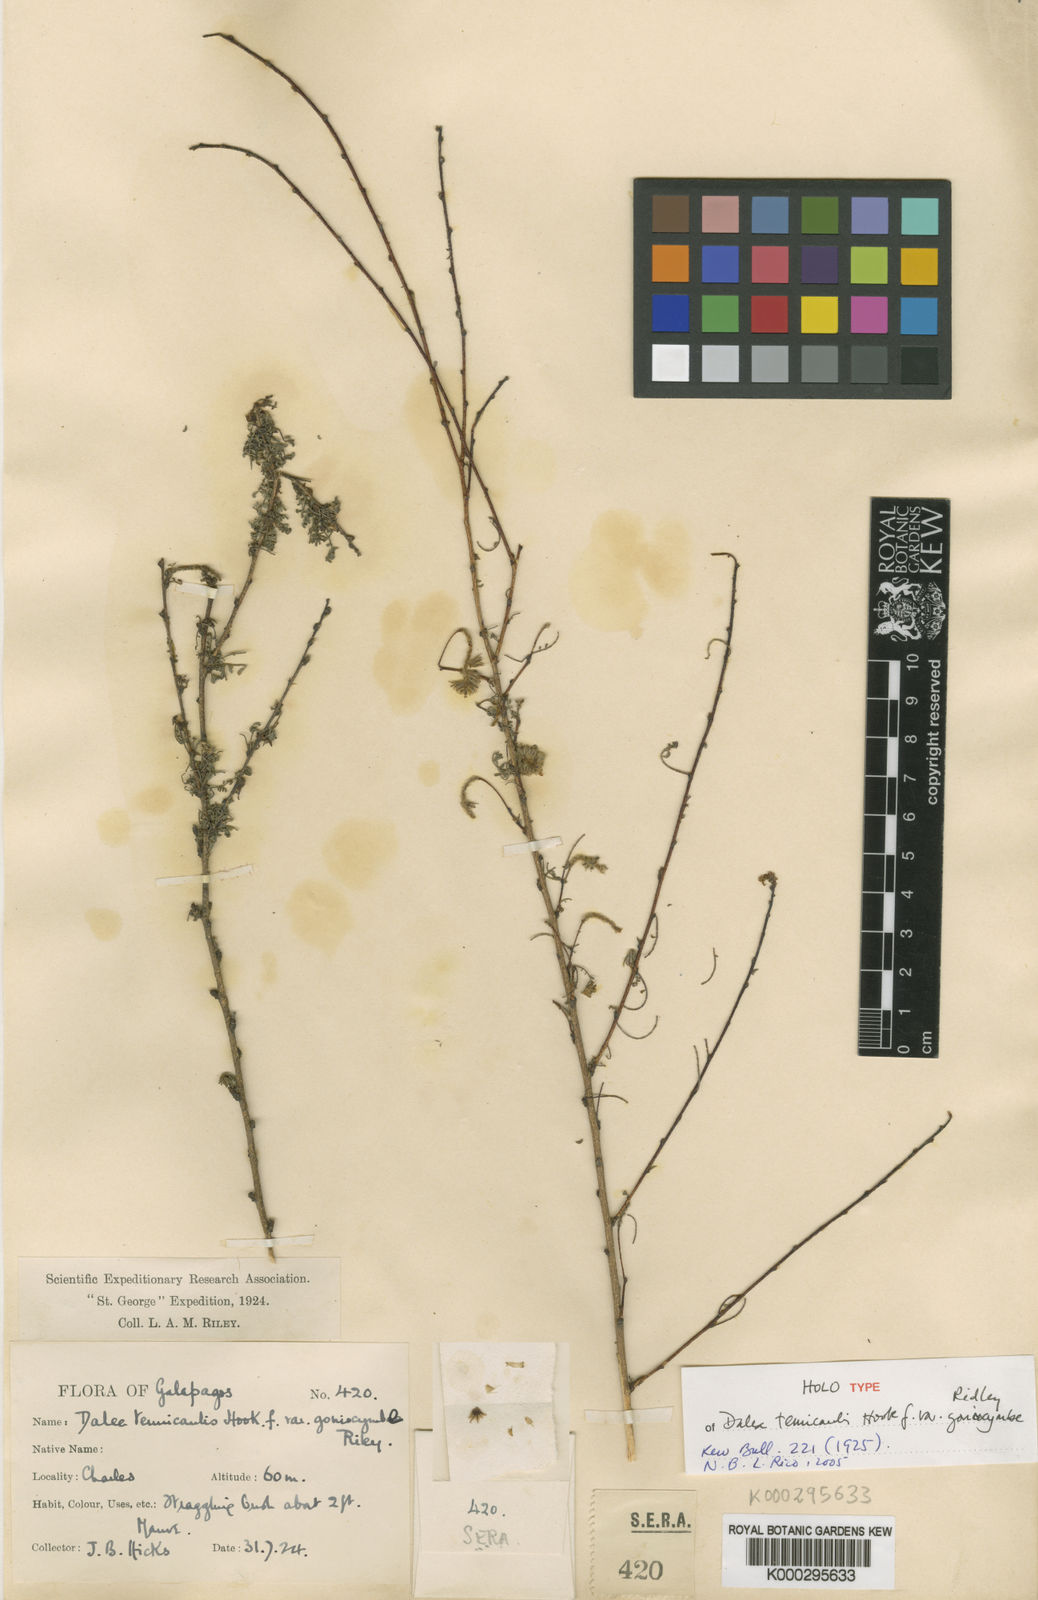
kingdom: Plantae
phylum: Tracheophyta
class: Magnoliopsida
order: Fabales
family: Fabaceae
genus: Dalea
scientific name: Dalea tenuicaulis
